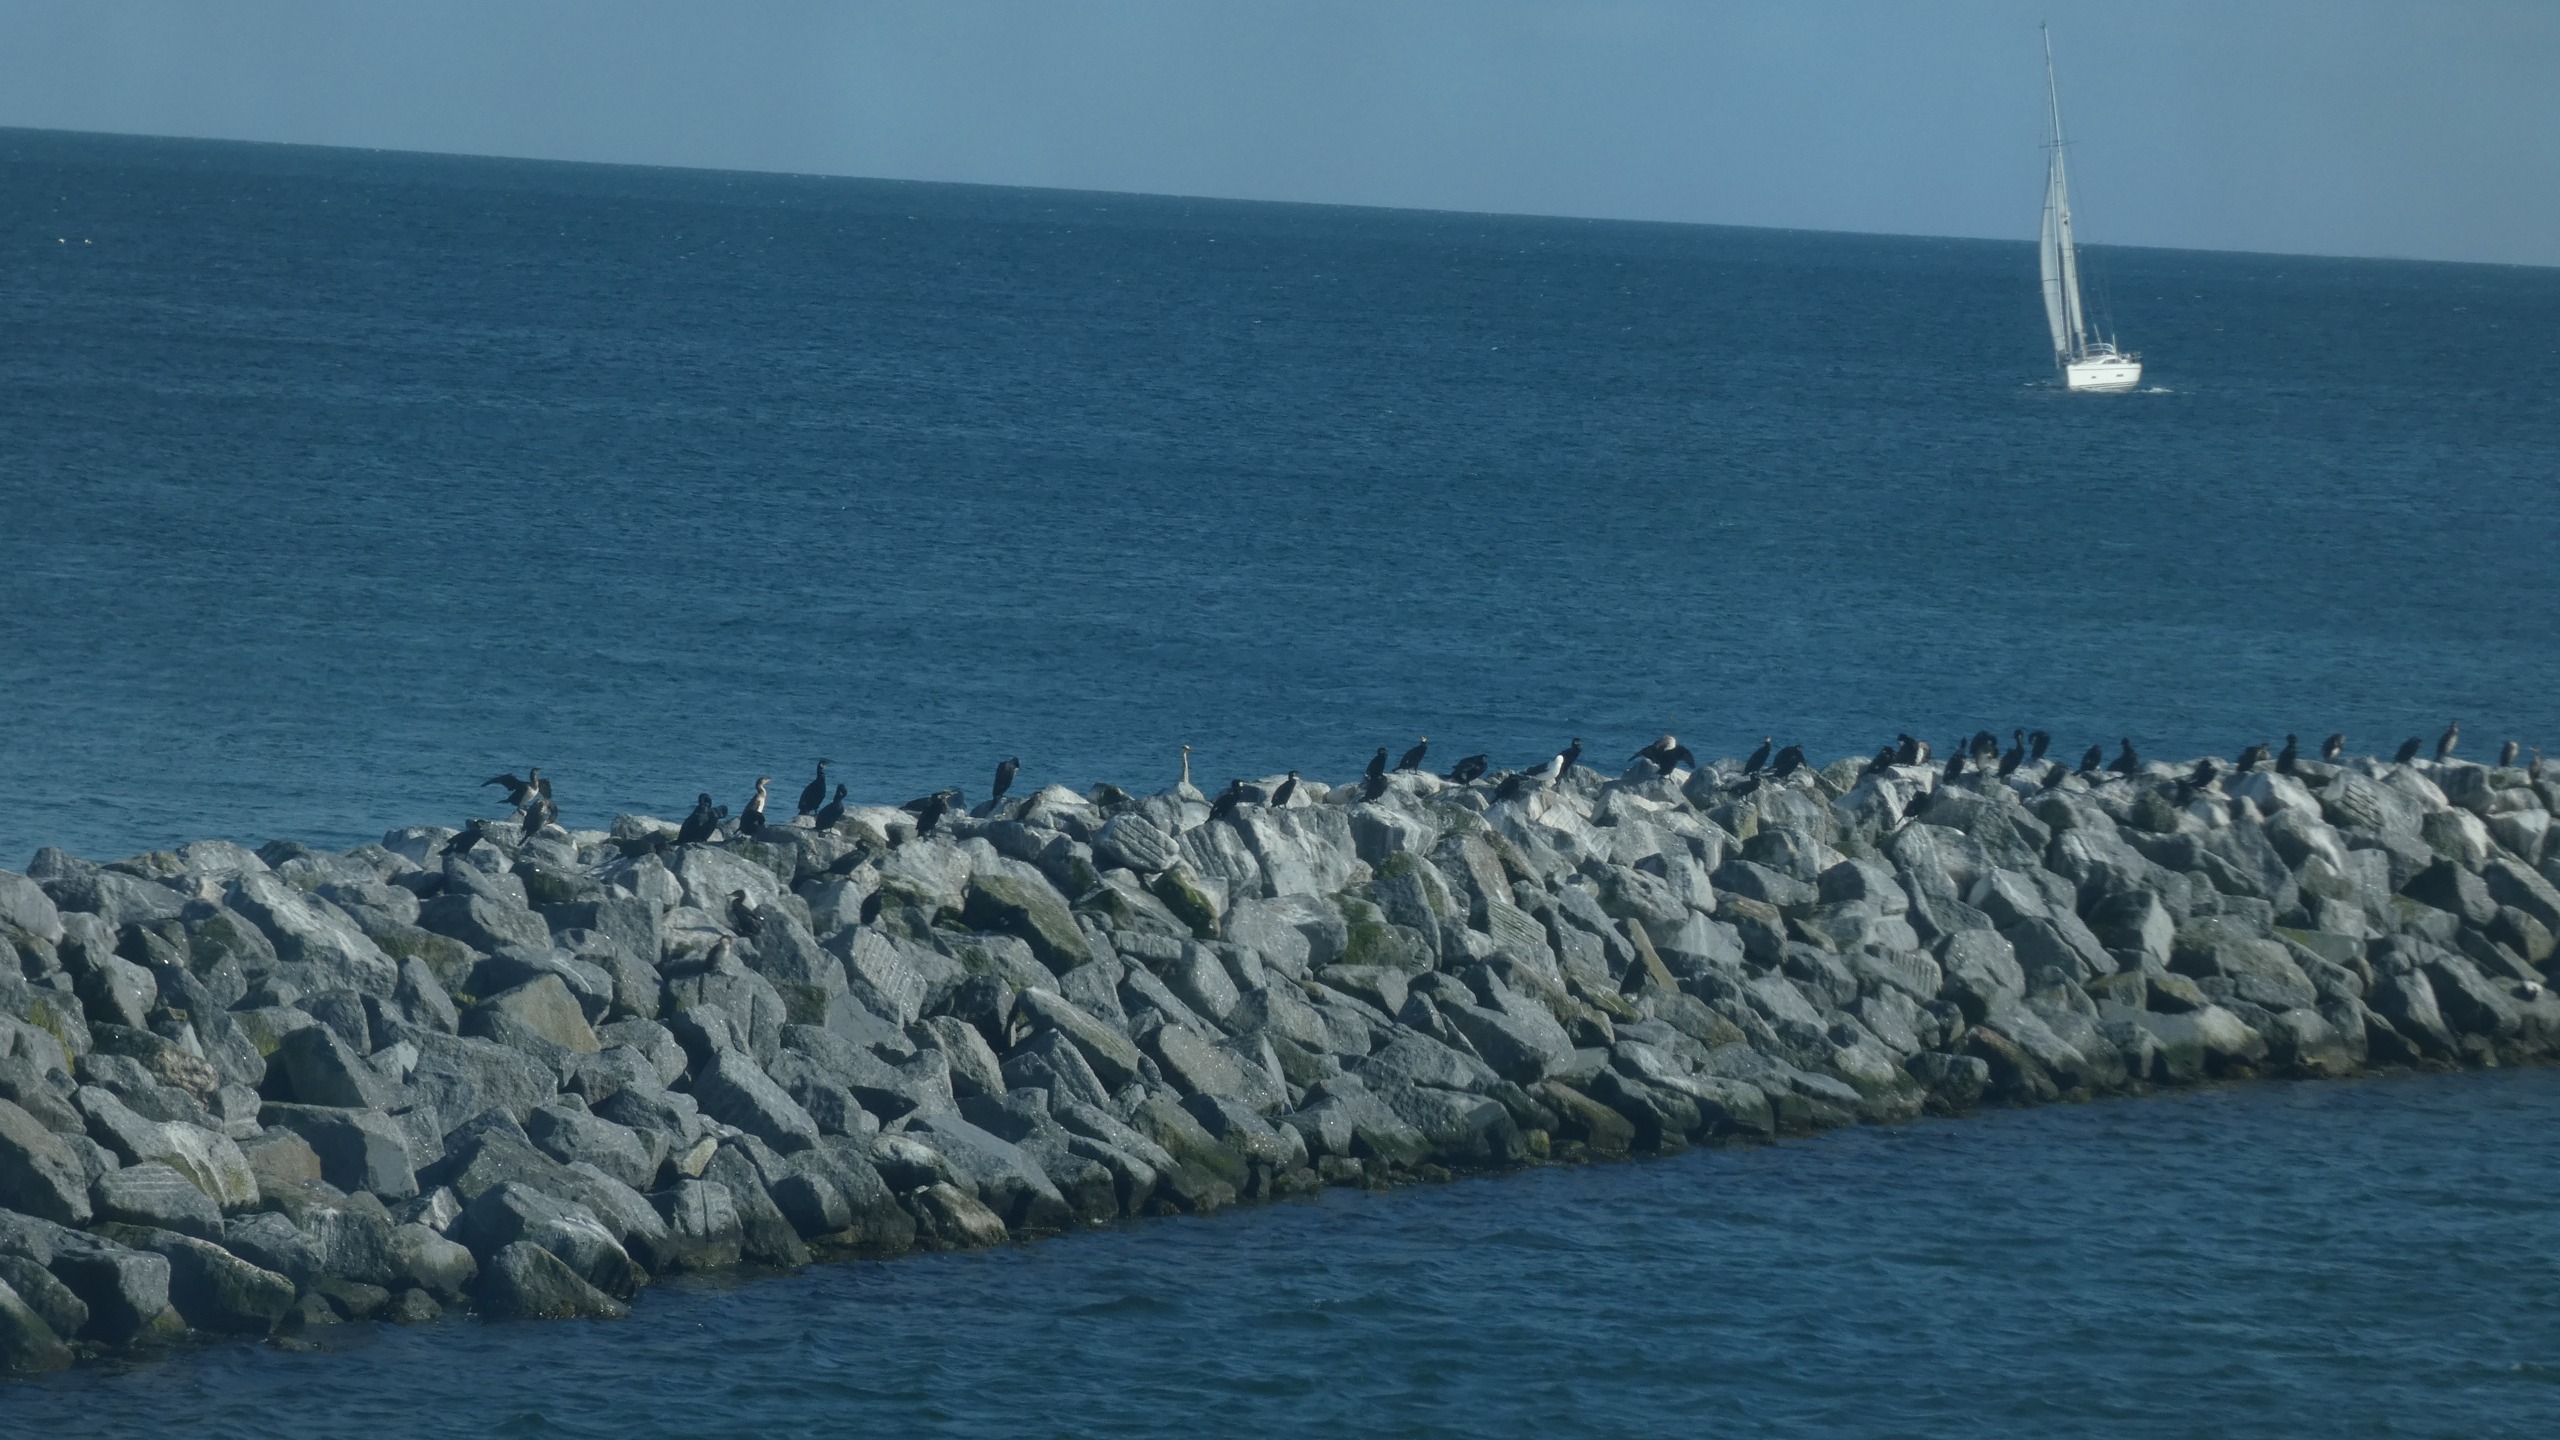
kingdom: Animalia
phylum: Chordata
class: Aves
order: Suliformes
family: Phalacrocoracidae
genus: Phalacrocorax
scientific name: Phalacrocorax carbo
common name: Skarv
